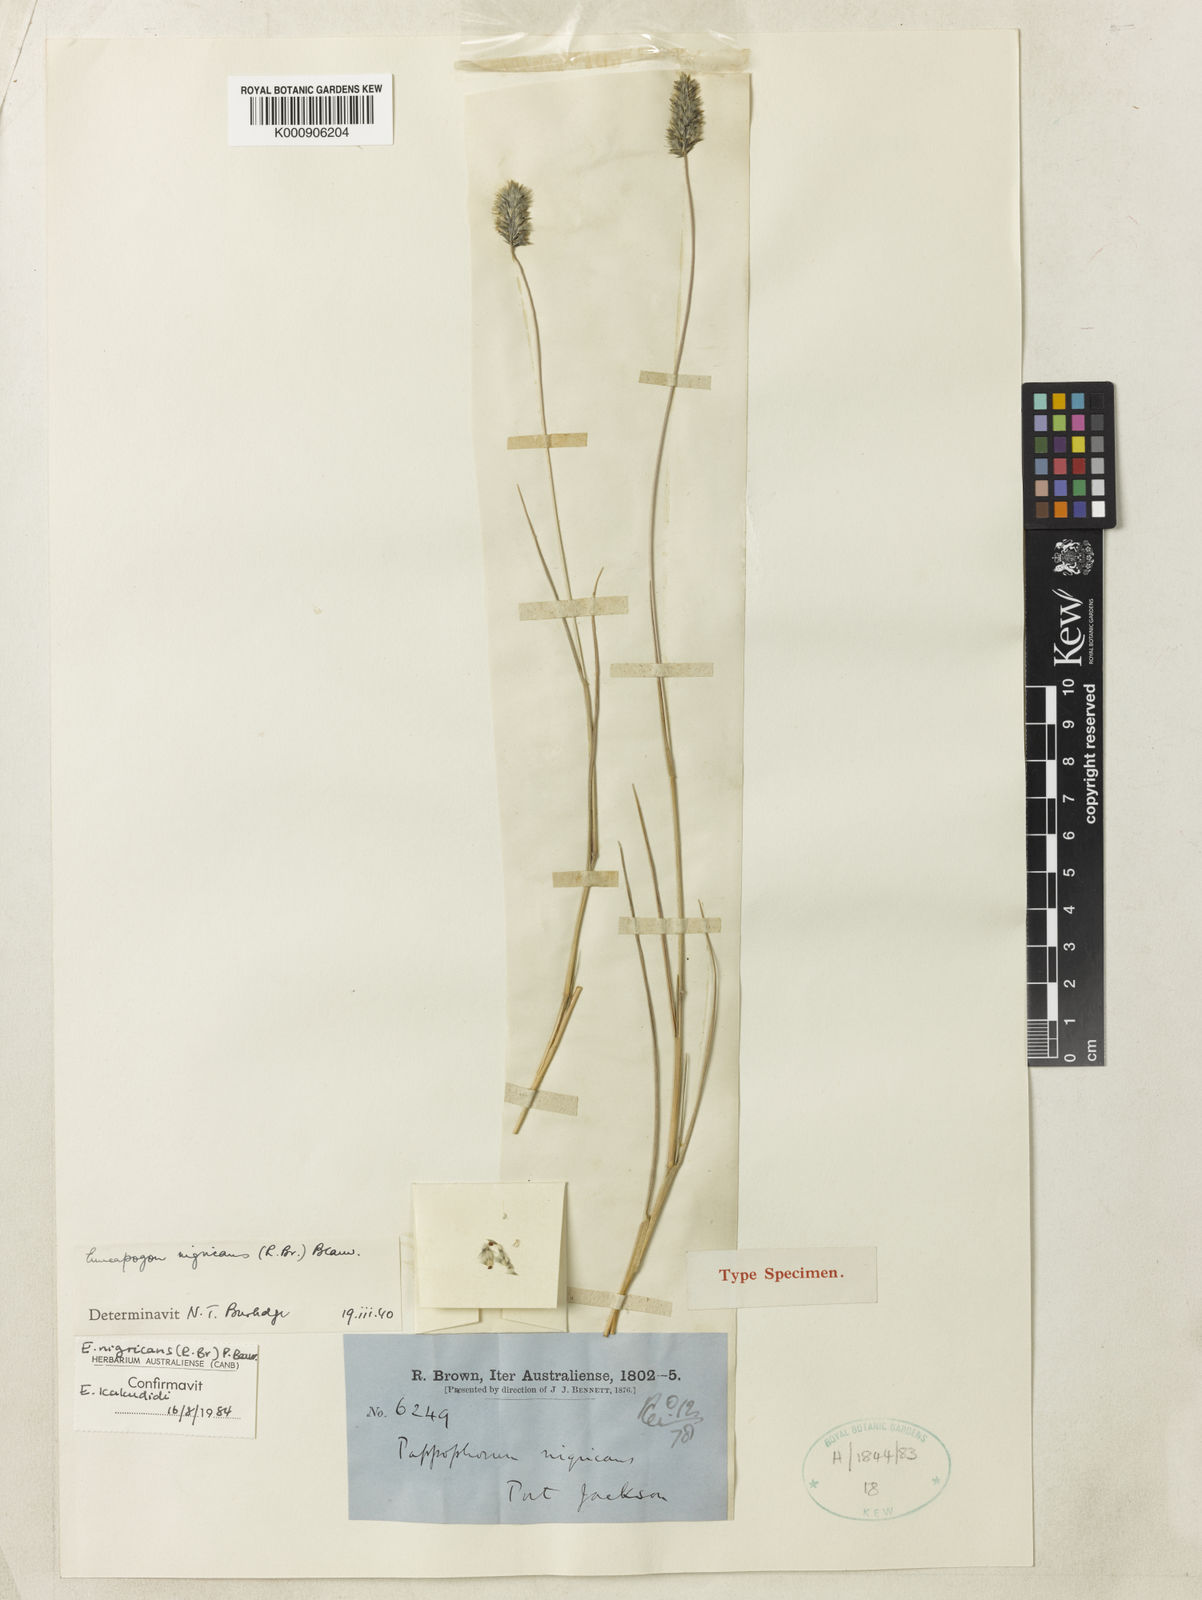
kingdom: Plantae
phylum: Tracheophyta
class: Liliopsida
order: Poales
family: Poaceae
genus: Enneapogon
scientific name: Enneapogon nigricans
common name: Pappus grass
